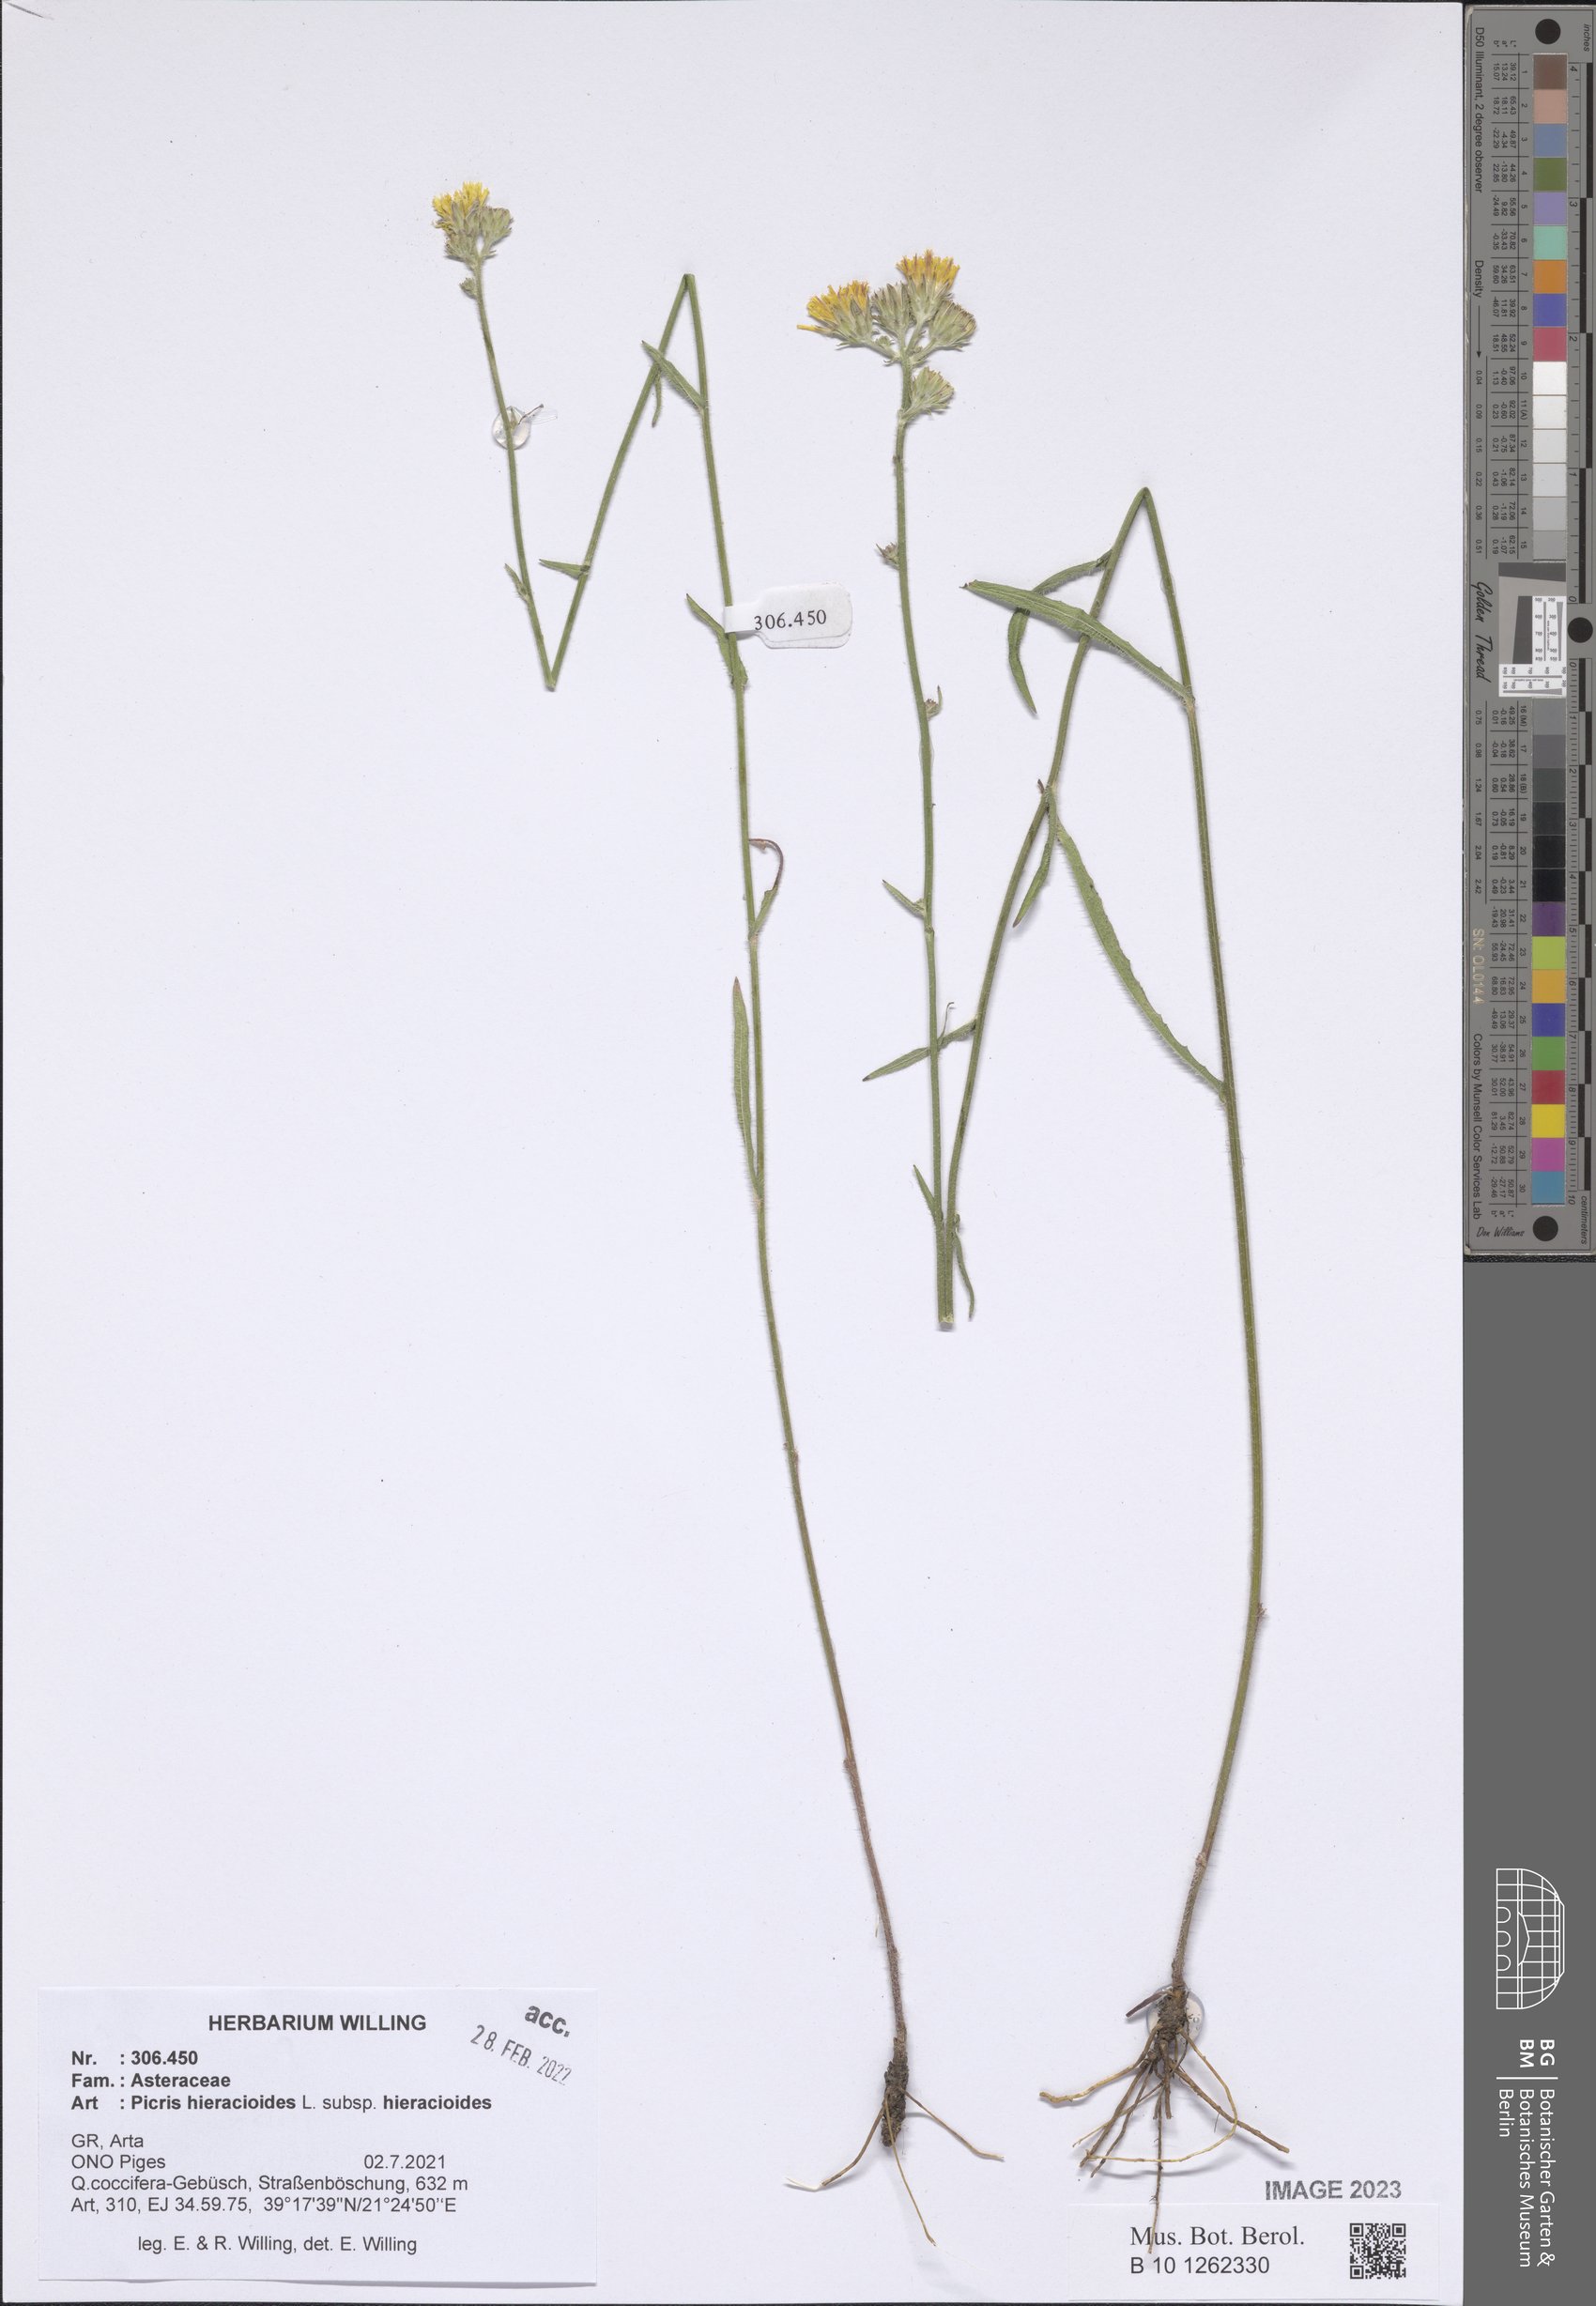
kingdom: Plantae
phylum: Tracheophyta
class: Magnoliopsida
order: Asterales
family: Asteraceae
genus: Picris
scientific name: Picris hieracioides
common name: Hawkweed oxtongue
